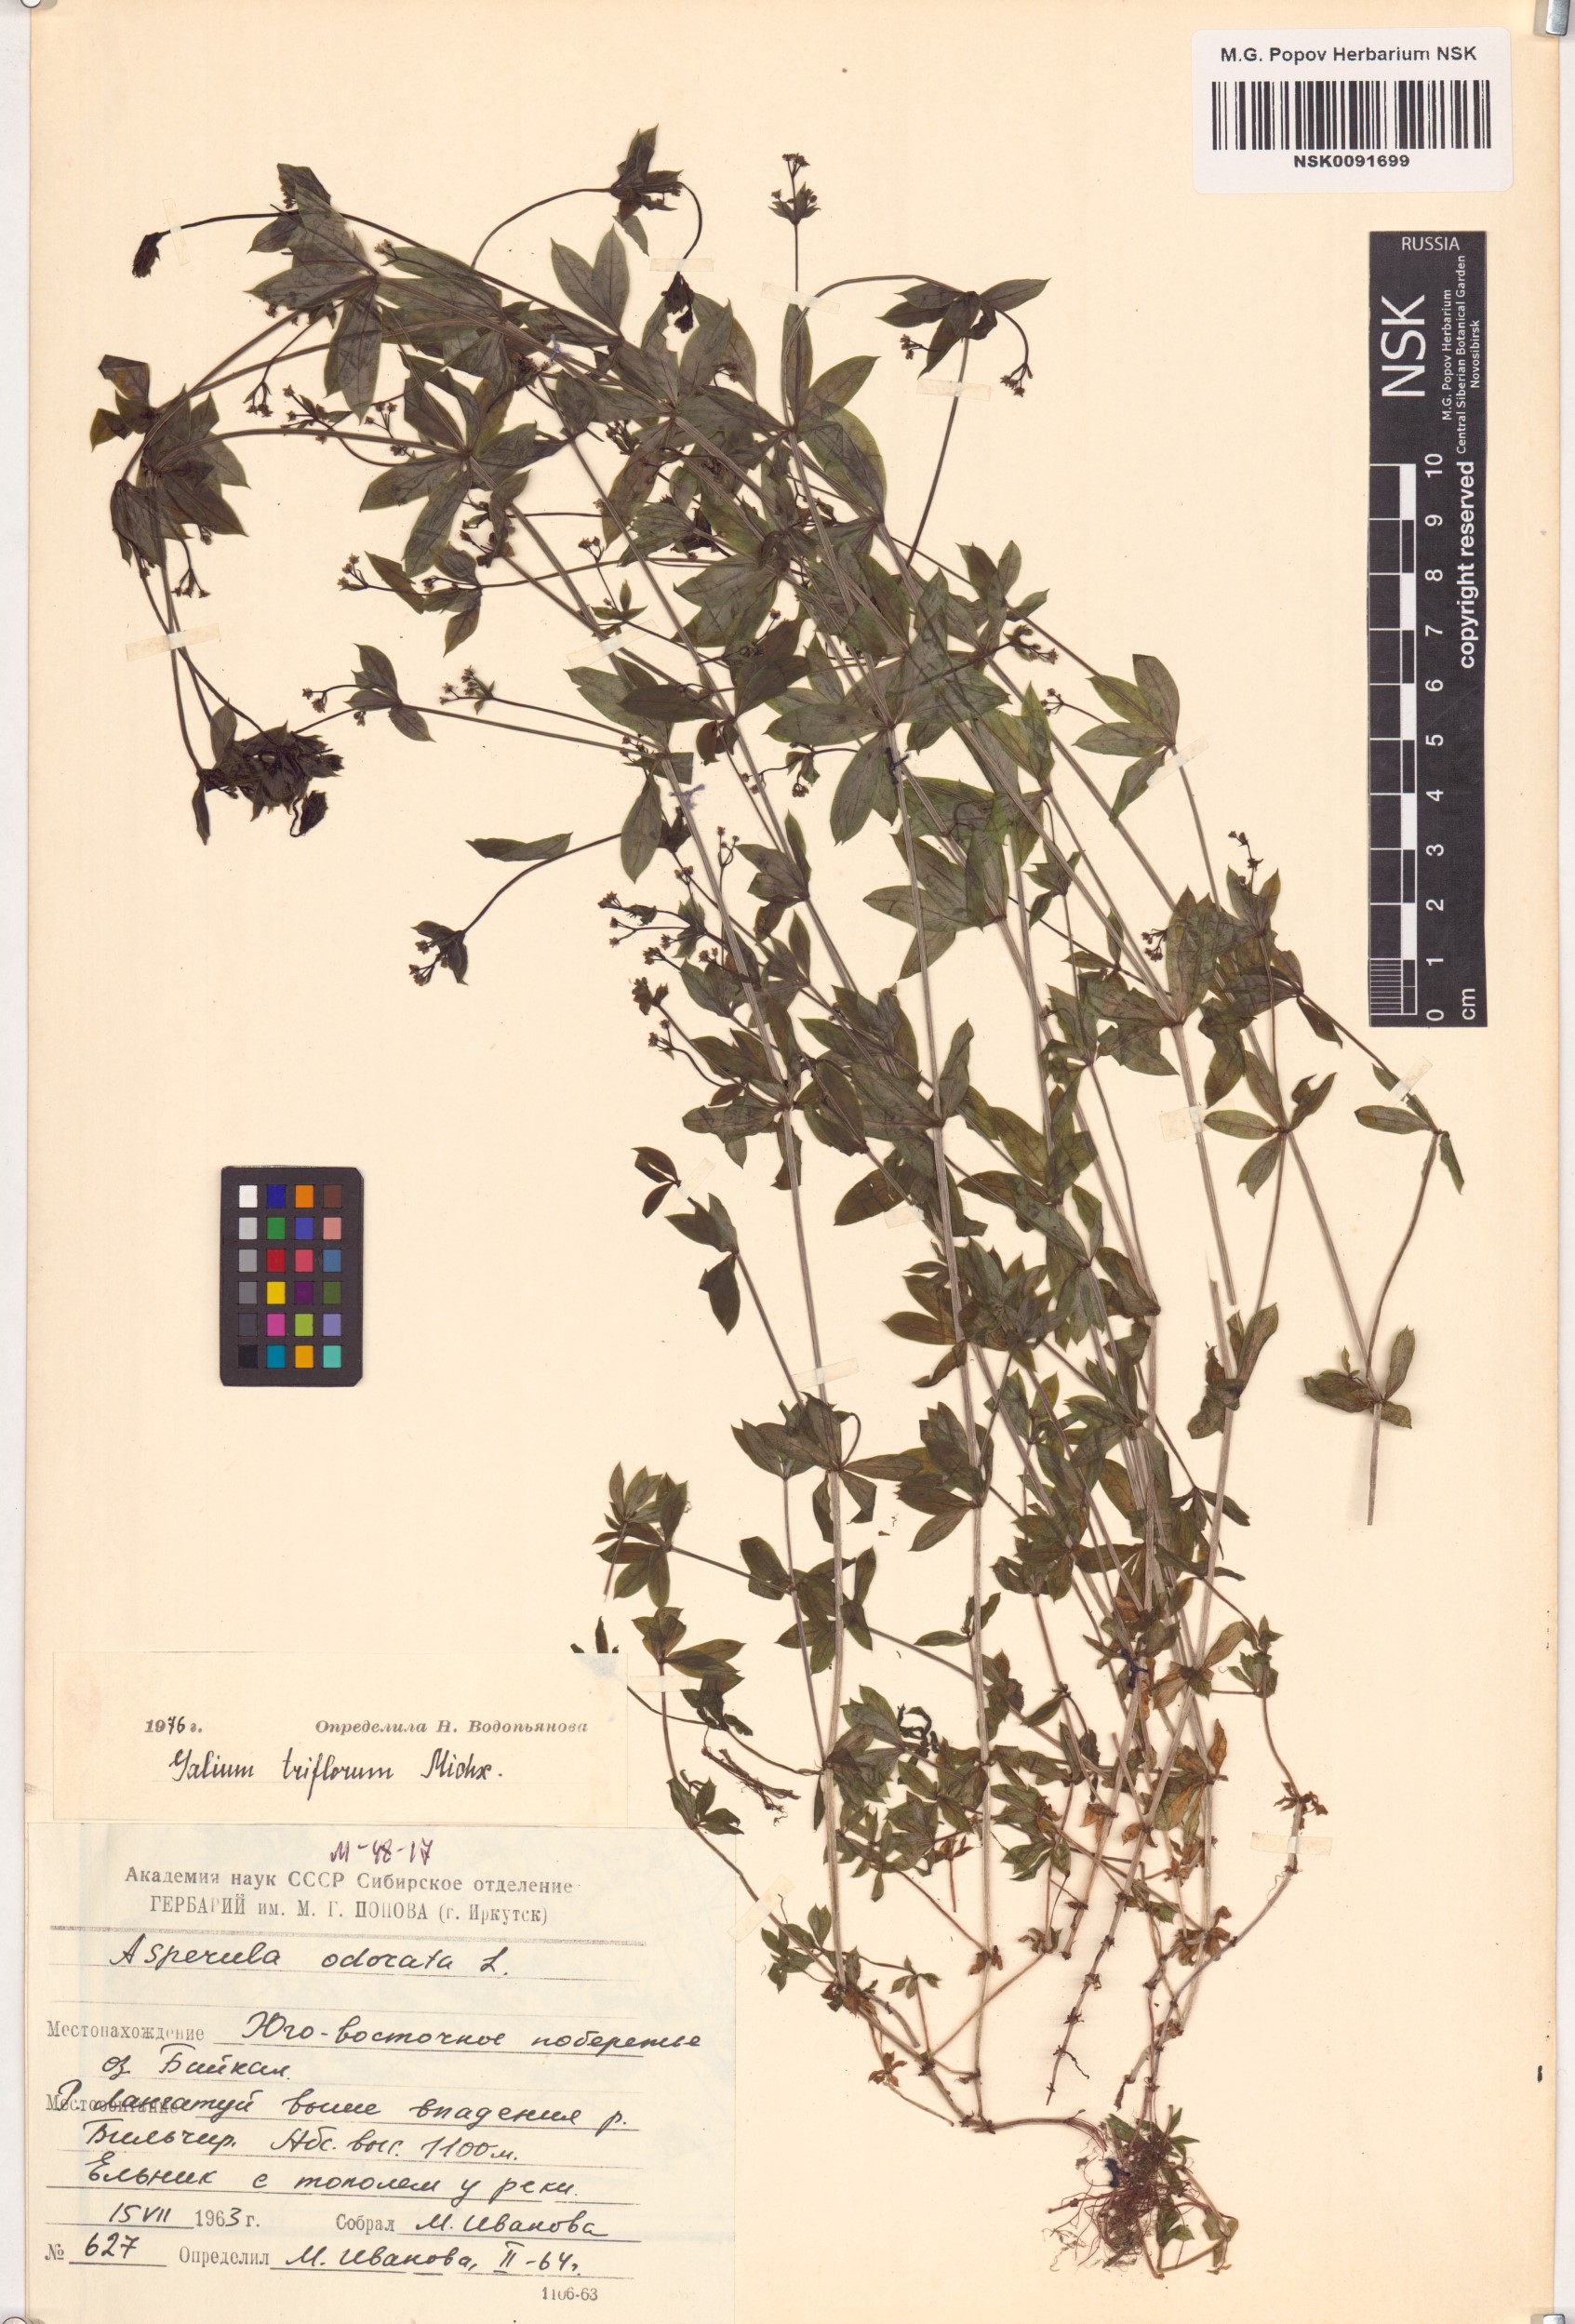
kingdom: Plantae
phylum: Tracheophyta
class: Magnoliopsida
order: Gentianales
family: Rubiaceae
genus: Galium
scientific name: Galium triflorum
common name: Fragrant bedstraw
